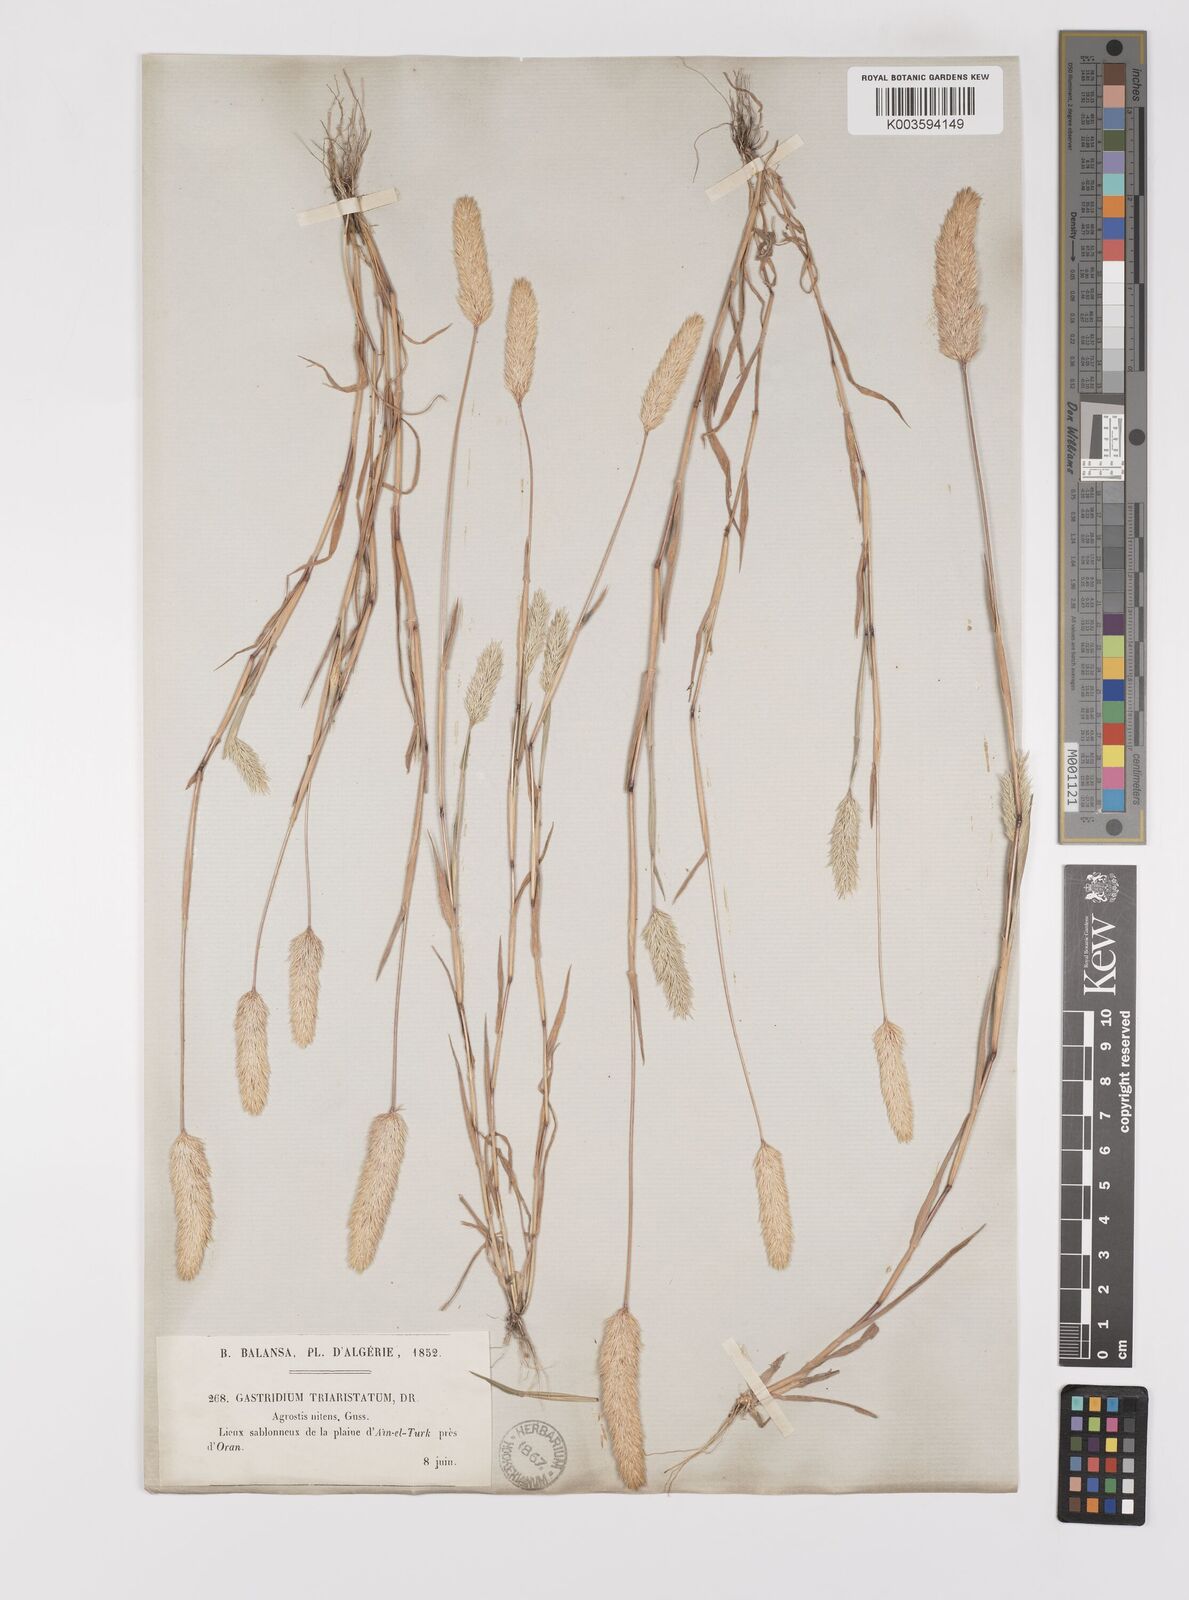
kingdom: Plantae
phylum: Tracheophyta
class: Liliopsida
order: Poales
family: Poaceae
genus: Triplachne
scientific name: Triplachne nitens
